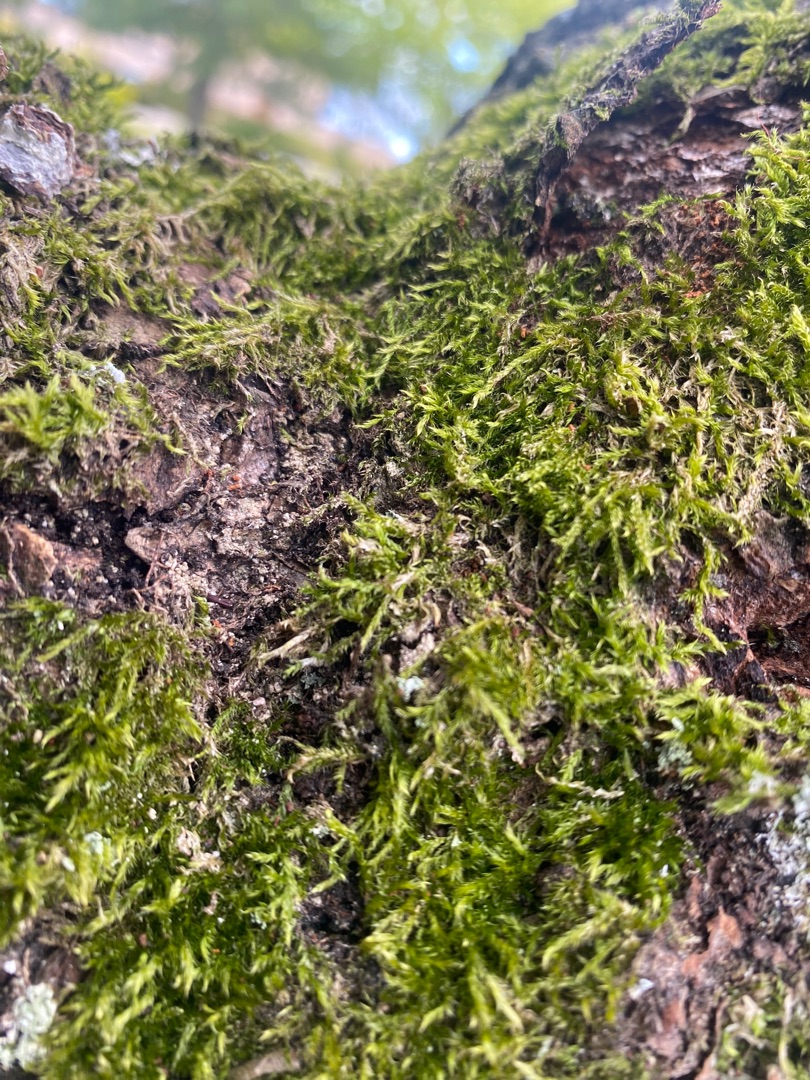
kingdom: Plantae
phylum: Bryophyta
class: Bryopsida
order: Hypnales
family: Hypnaceae
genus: Hypnum
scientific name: Hypnum
